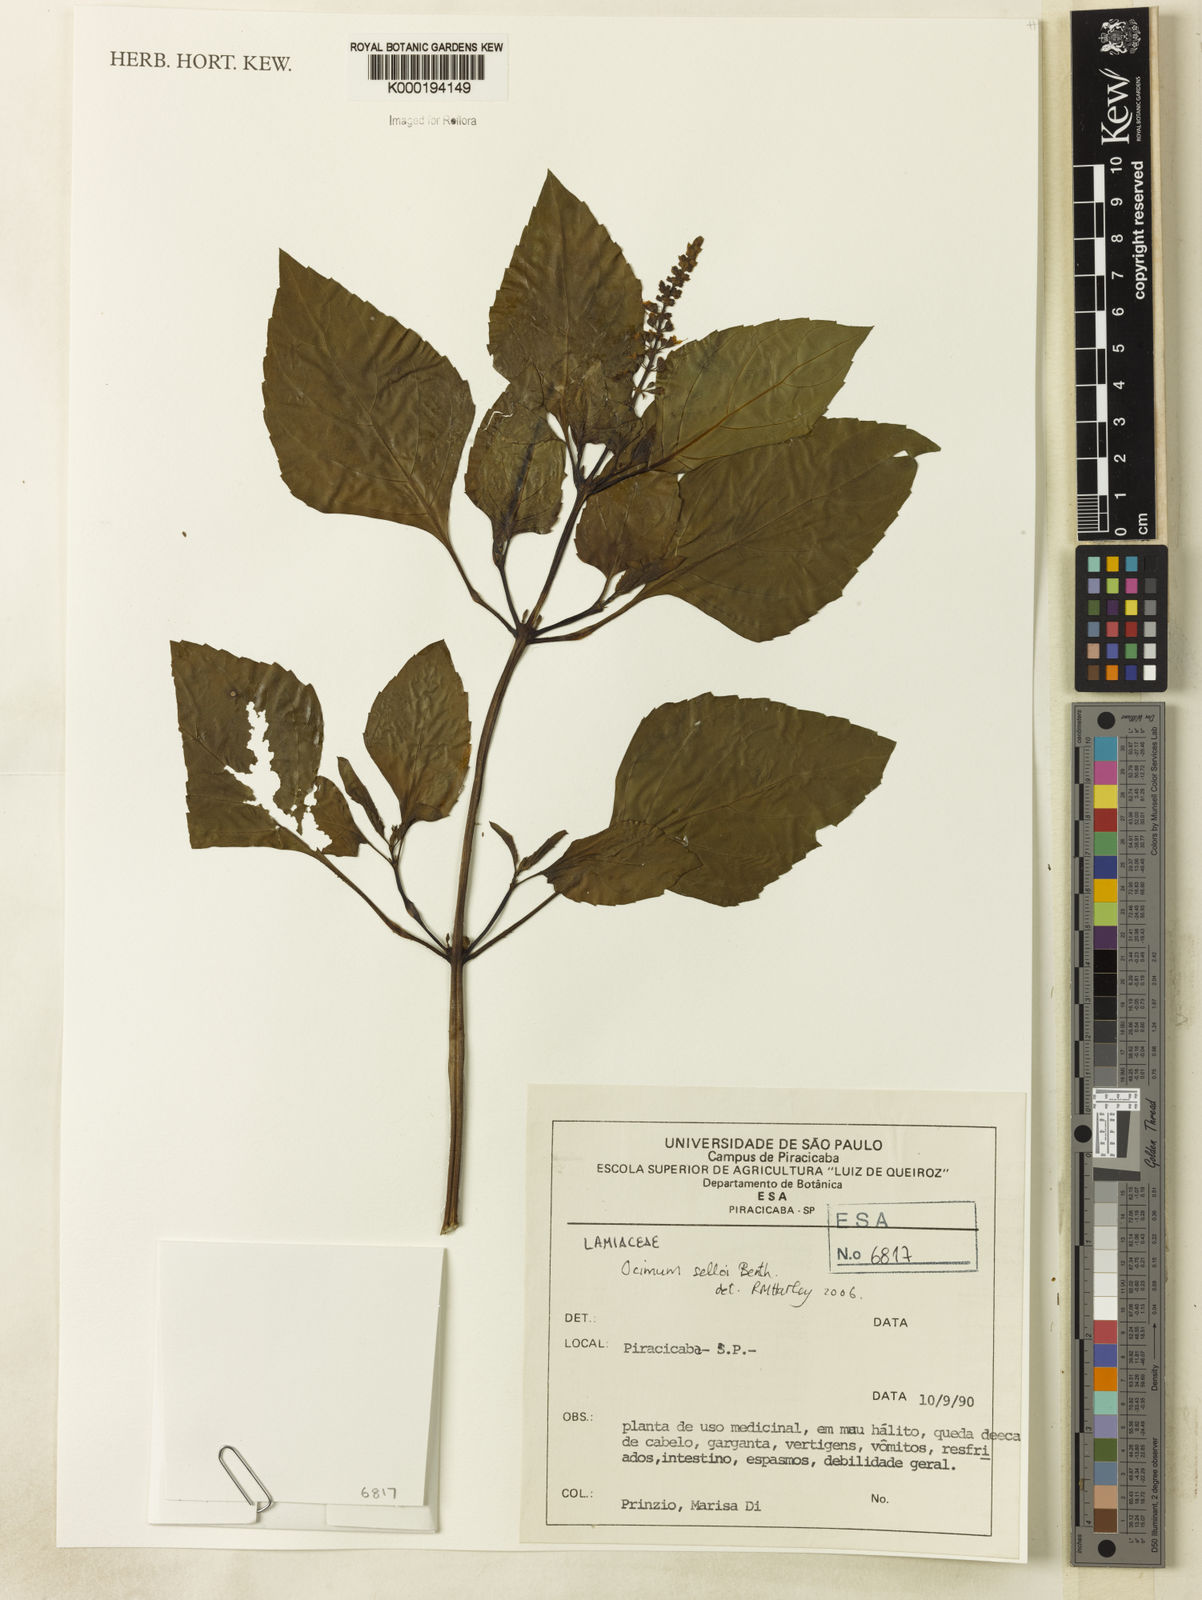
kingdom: Plantae
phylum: Tracheophyta
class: Magnoliopsida
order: Lamiales
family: Lamiaceae
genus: Ocimum
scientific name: Ocimum carnosum
